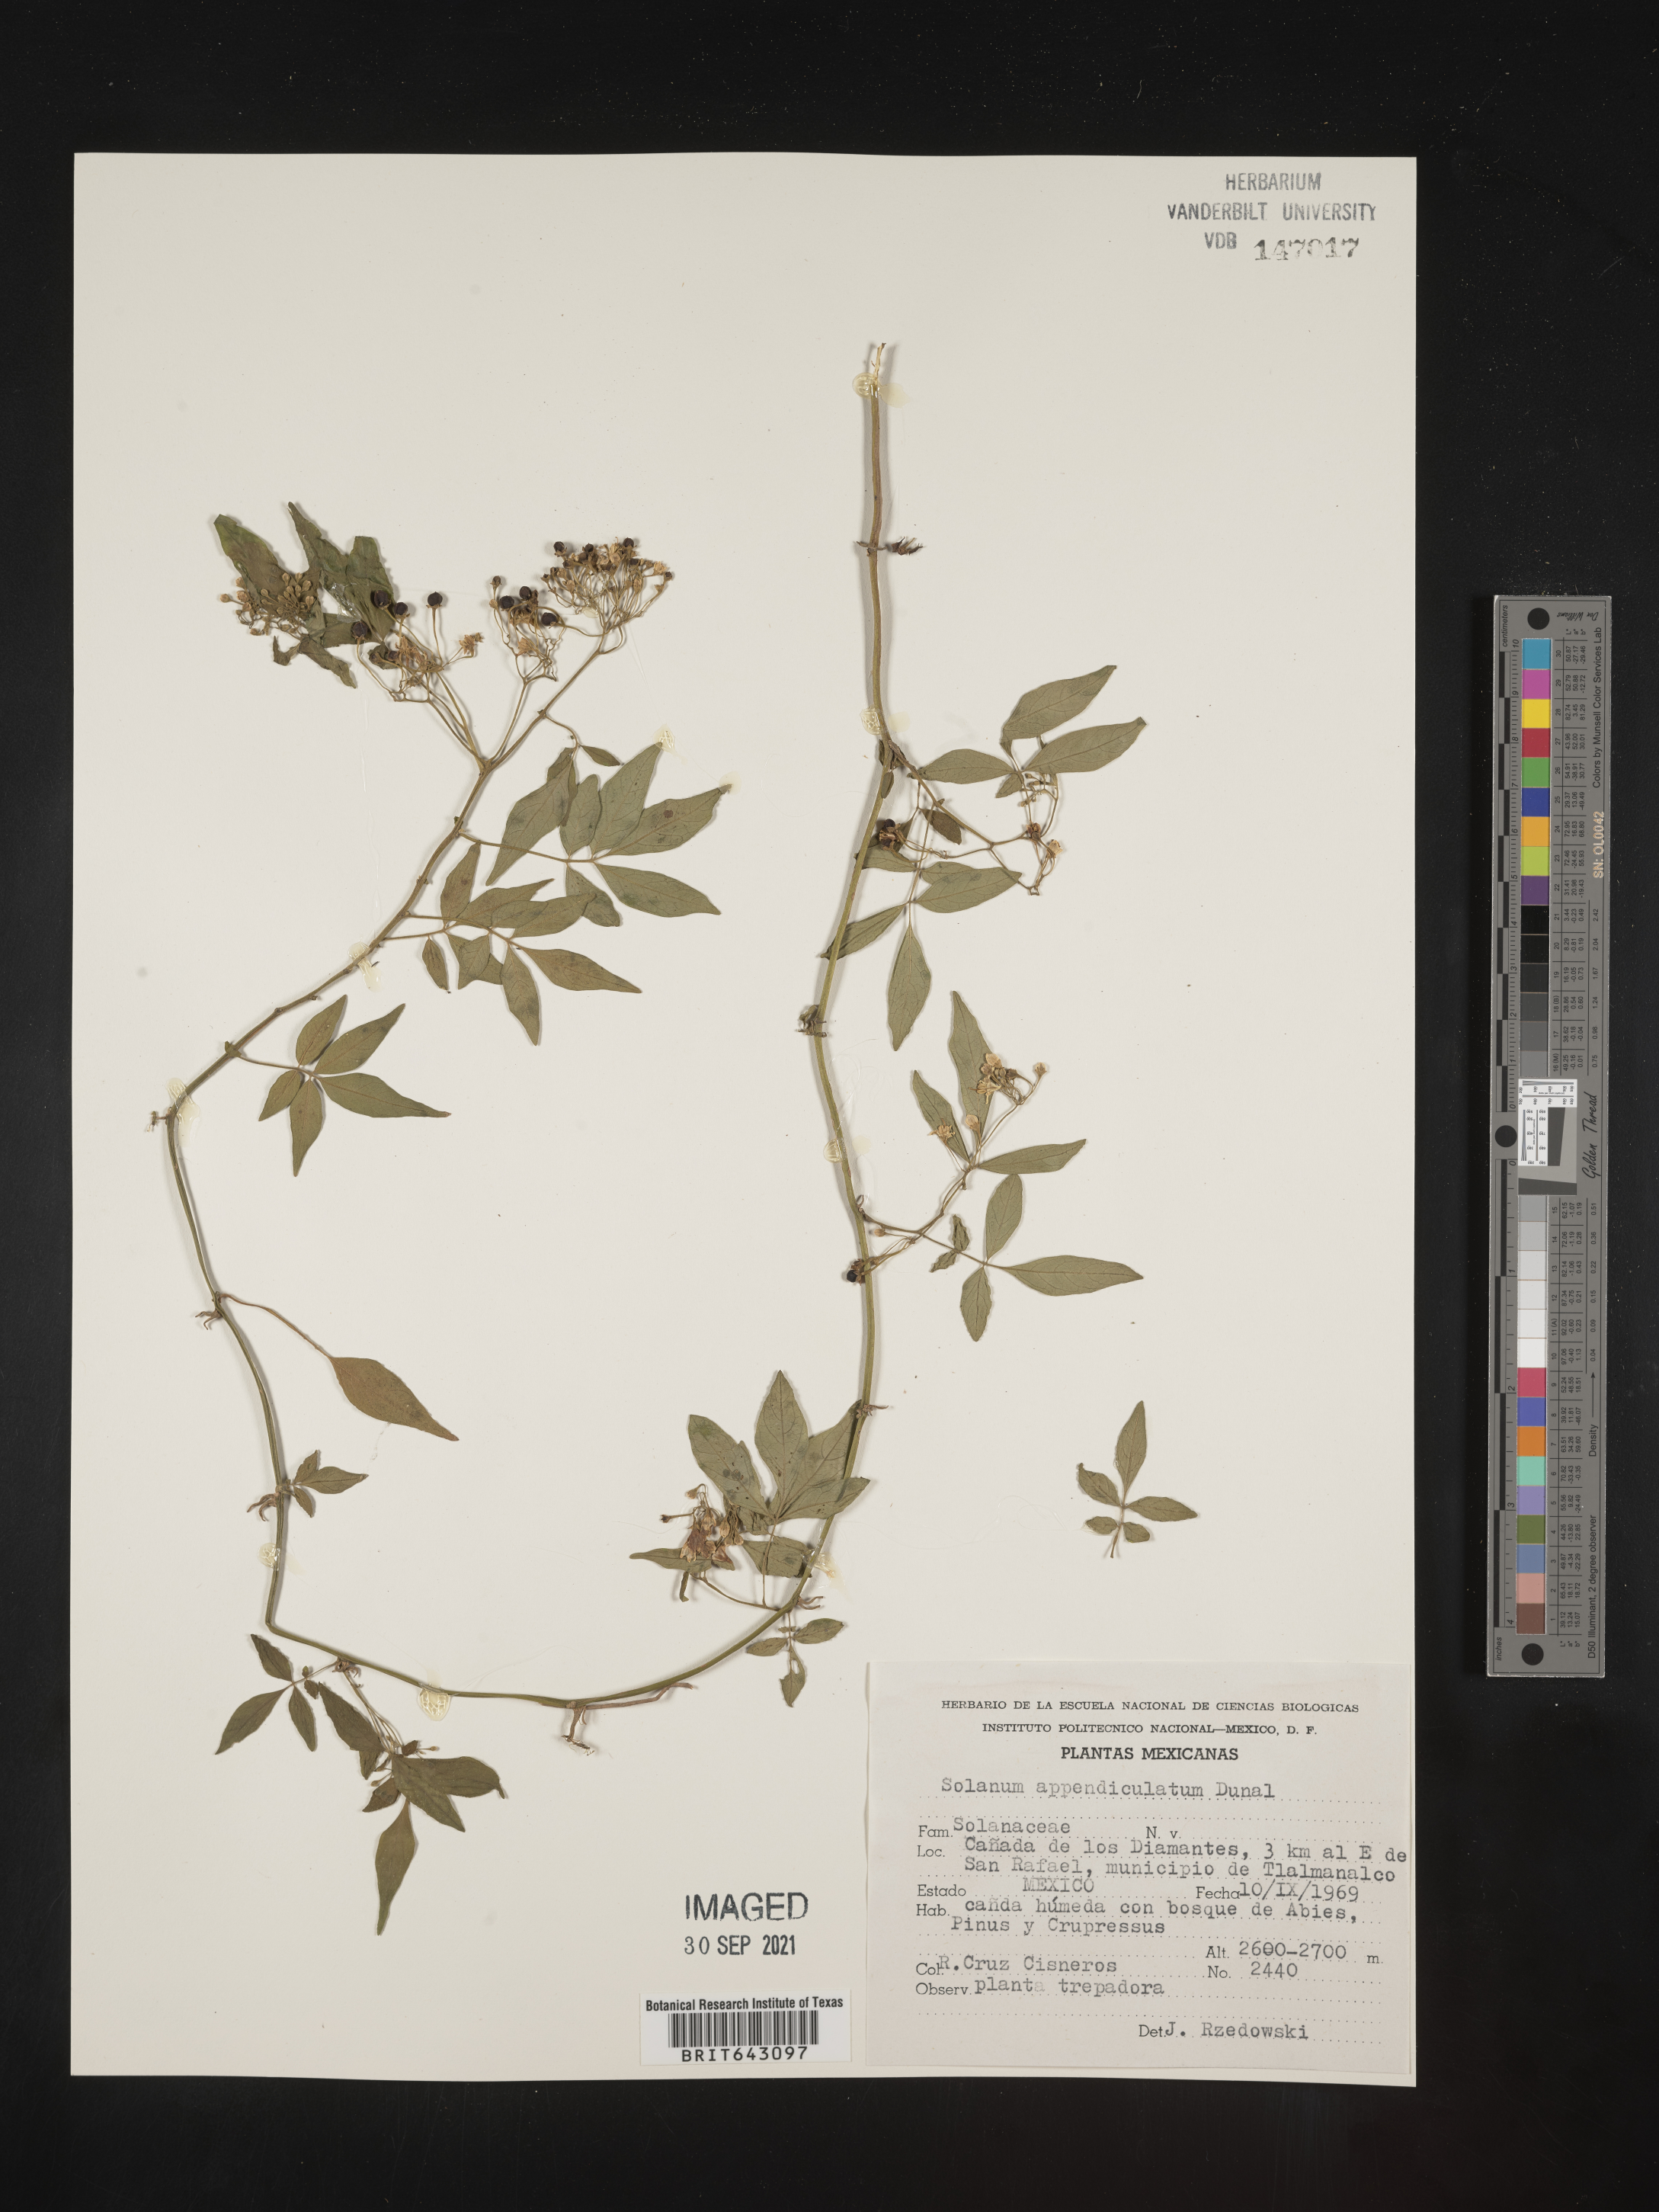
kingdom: Plantae
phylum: Tracheophyta
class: Magnoliopsida
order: Solanales
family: Solanaceae
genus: Solanum
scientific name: Solanum
